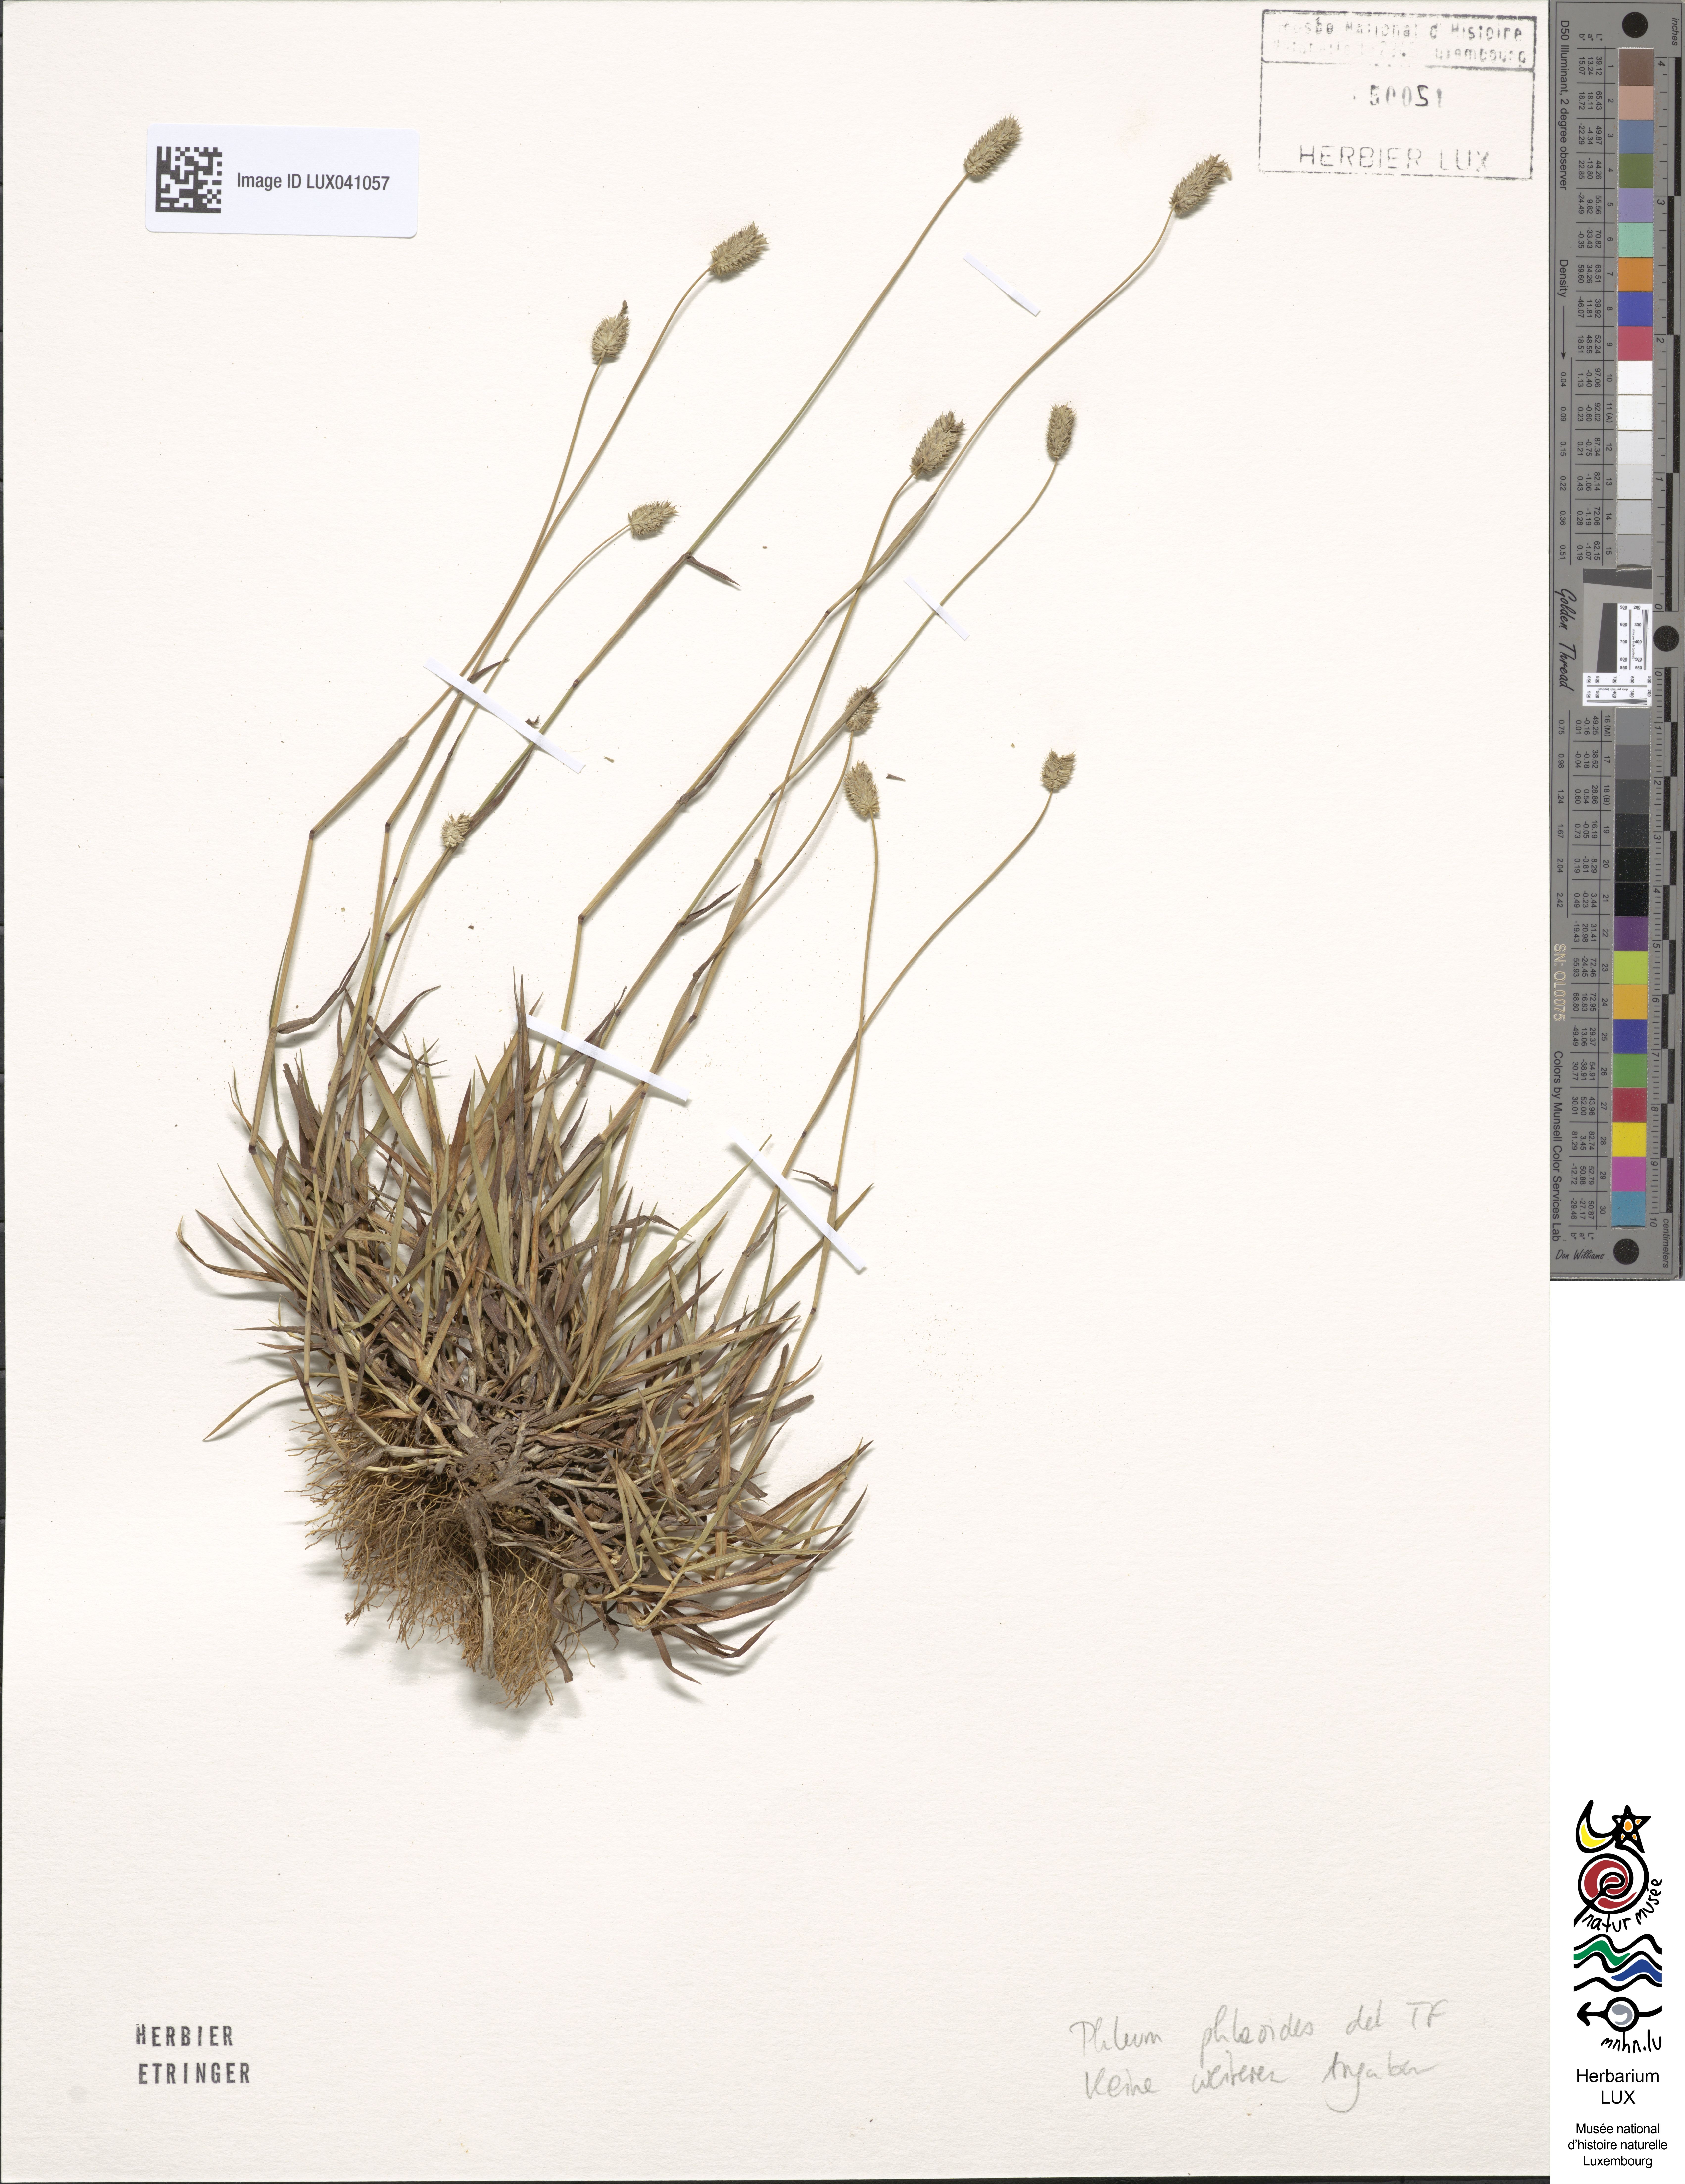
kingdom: Plantae
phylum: Tracheophyta
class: Liliopsida
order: Poales
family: Poaceae
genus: Phleum
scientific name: Phleum phleoides
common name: Purple-stem cat's-tail
